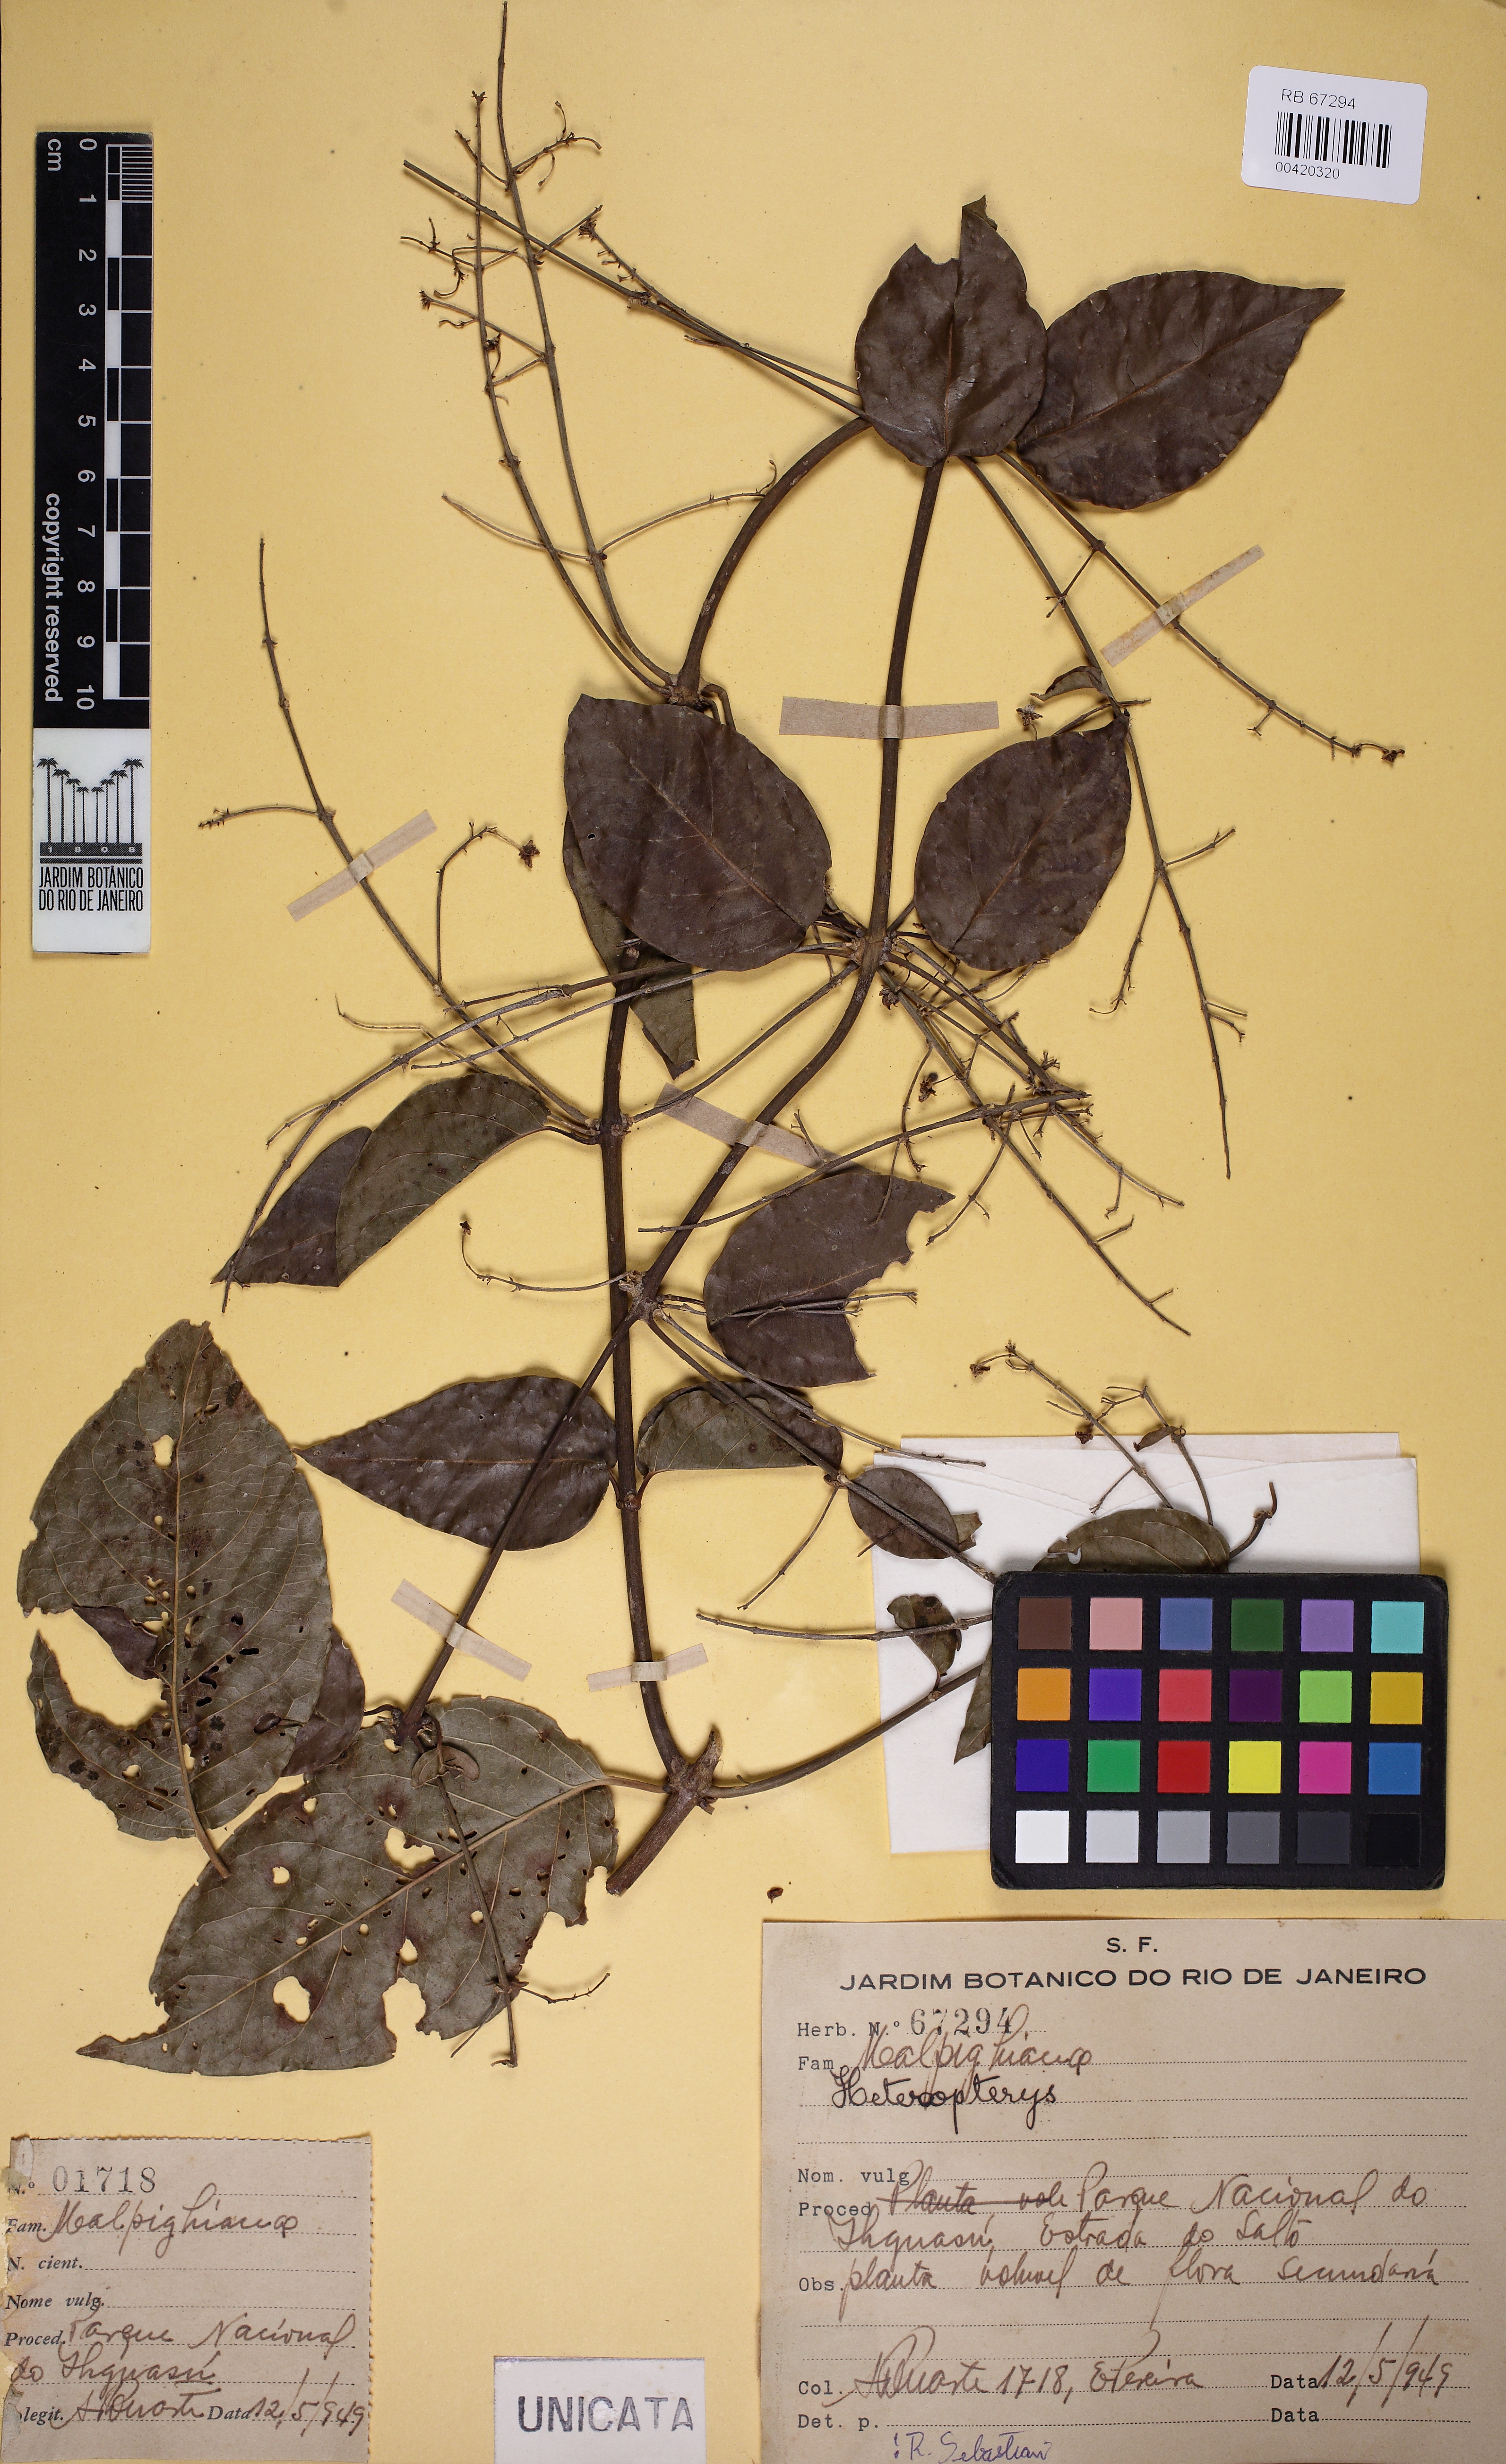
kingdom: Plantae
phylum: Tracheophyta
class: Magnoliopsida
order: Malpighiales
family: Malpighiaceae
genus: Heteropterys
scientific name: Heteropterys
